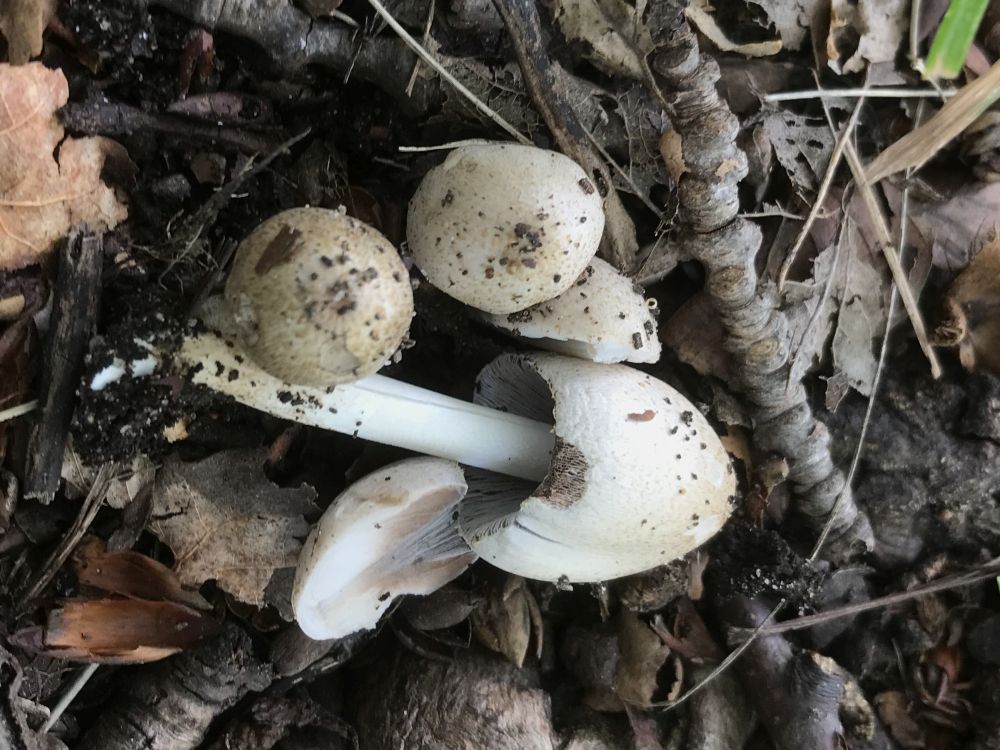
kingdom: Fungi
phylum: Basidiomycota
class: Agaricomycetes
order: Agaricales
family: Psathyrellaceae
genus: Coprinopsis
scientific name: Coprinopsis romagnesiana
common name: brunskællet blækhat
